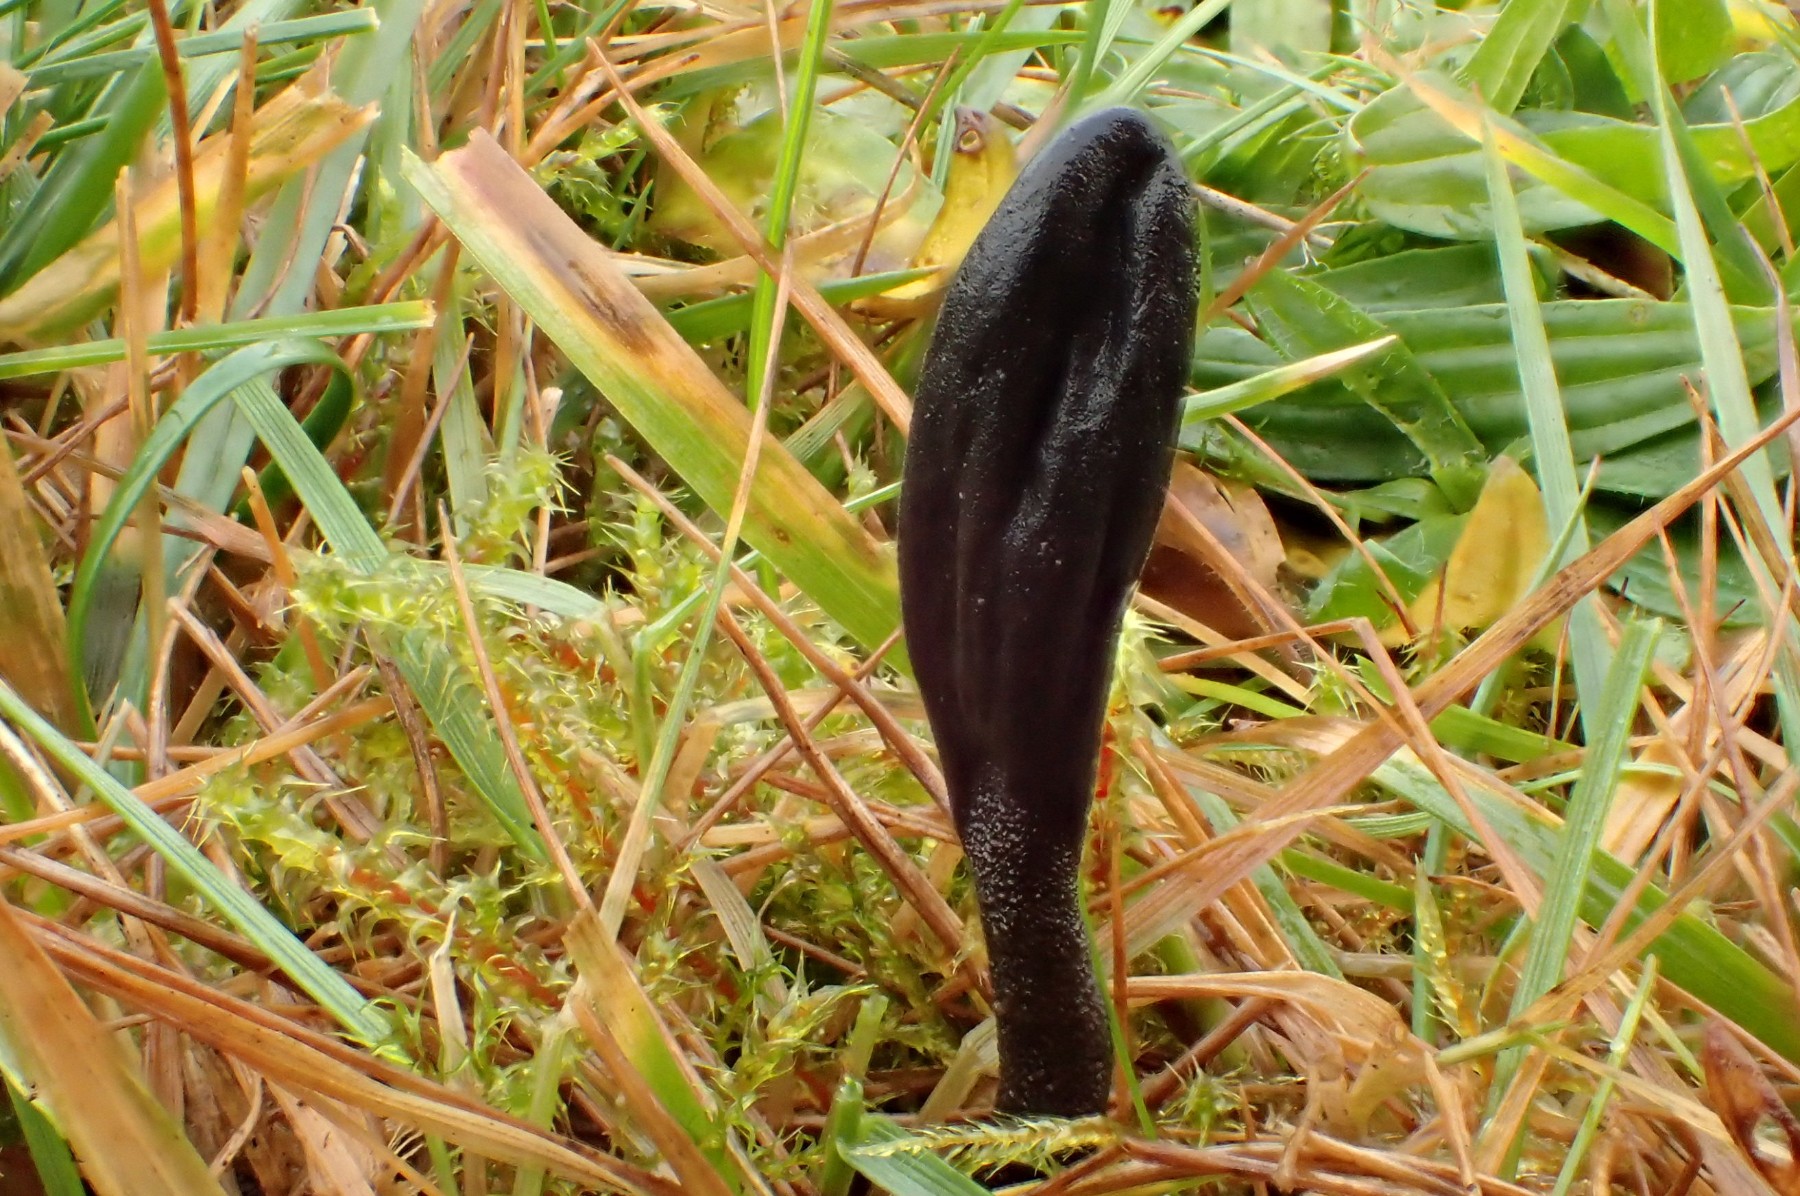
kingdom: Fungi
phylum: Ascomycota
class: Geoglossomycetes
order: Geoglossales
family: Geoglossaceae
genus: Hemileucoglossum
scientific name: Hemileucoglossum elongatum
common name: småsporet jordtunge
